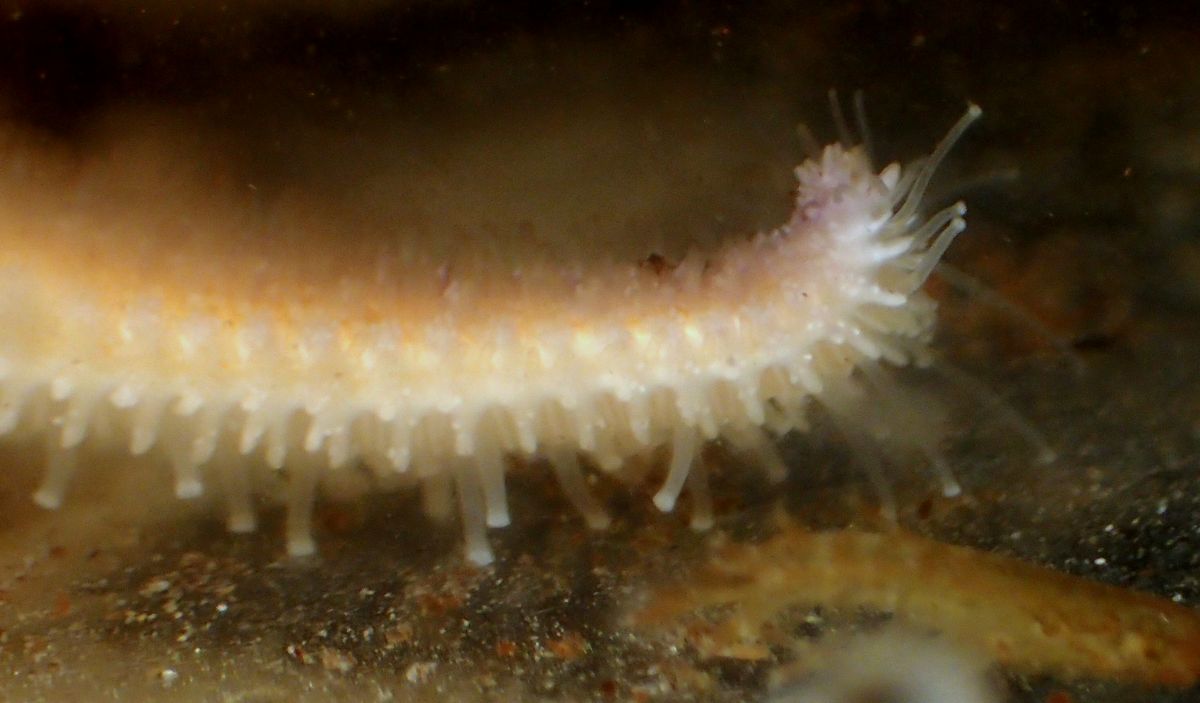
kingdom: Animalia
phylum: Echinodermata
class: Asteroidea
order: Forcipulatida
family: Asteriidae
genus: Asterias
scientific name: Asterias rubens
